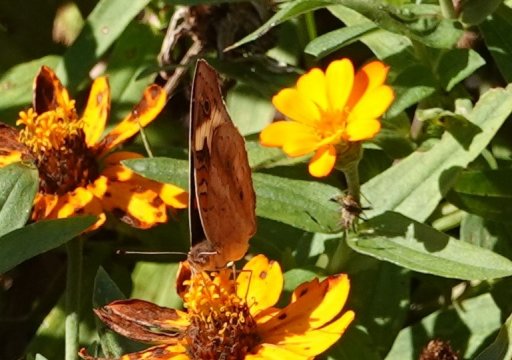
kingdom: Animalia
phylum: Arthropoda
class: Insecta
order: Lepidoptera
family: Nymphalidae
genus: Junonia
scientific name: Junonia coenia
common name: Common Buckeye
